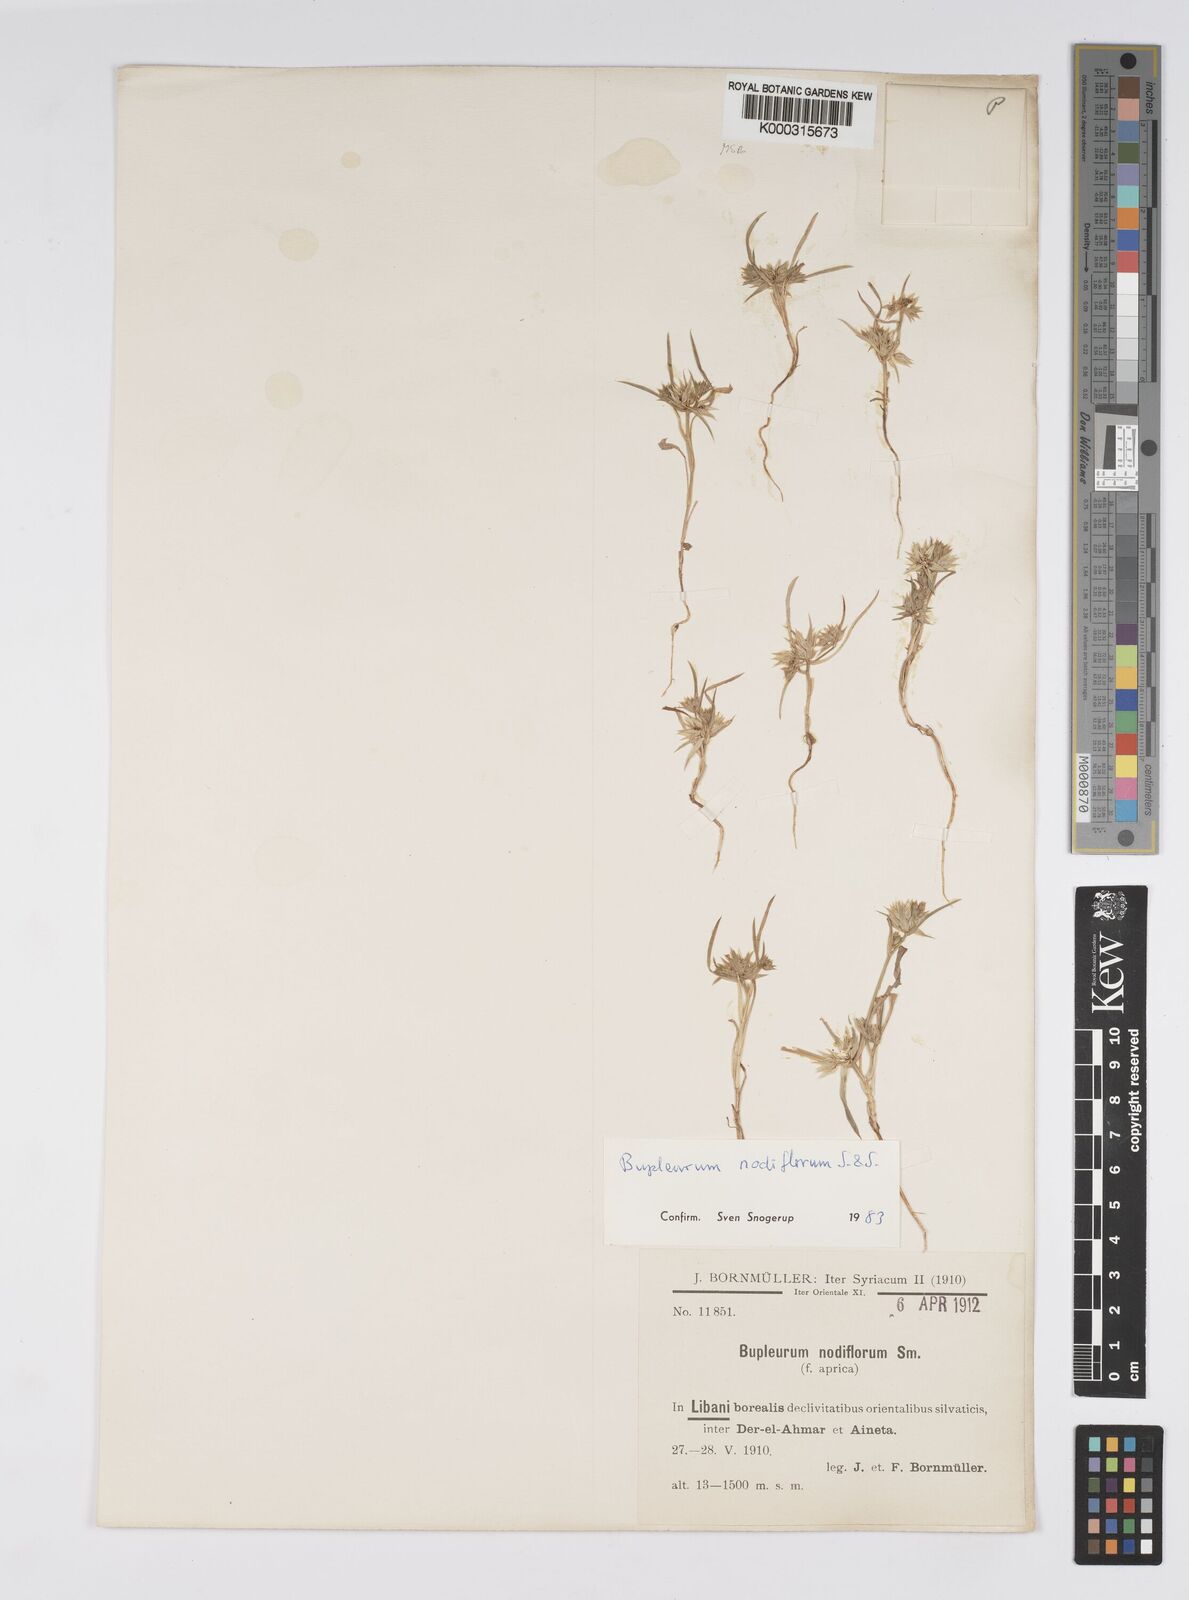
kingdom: Plantae
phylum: Tracheophyta
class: Magnoliopsida
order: Apiales
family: Apiaceae
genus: Bupleurum
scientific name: Bupleurum nodiflorum
